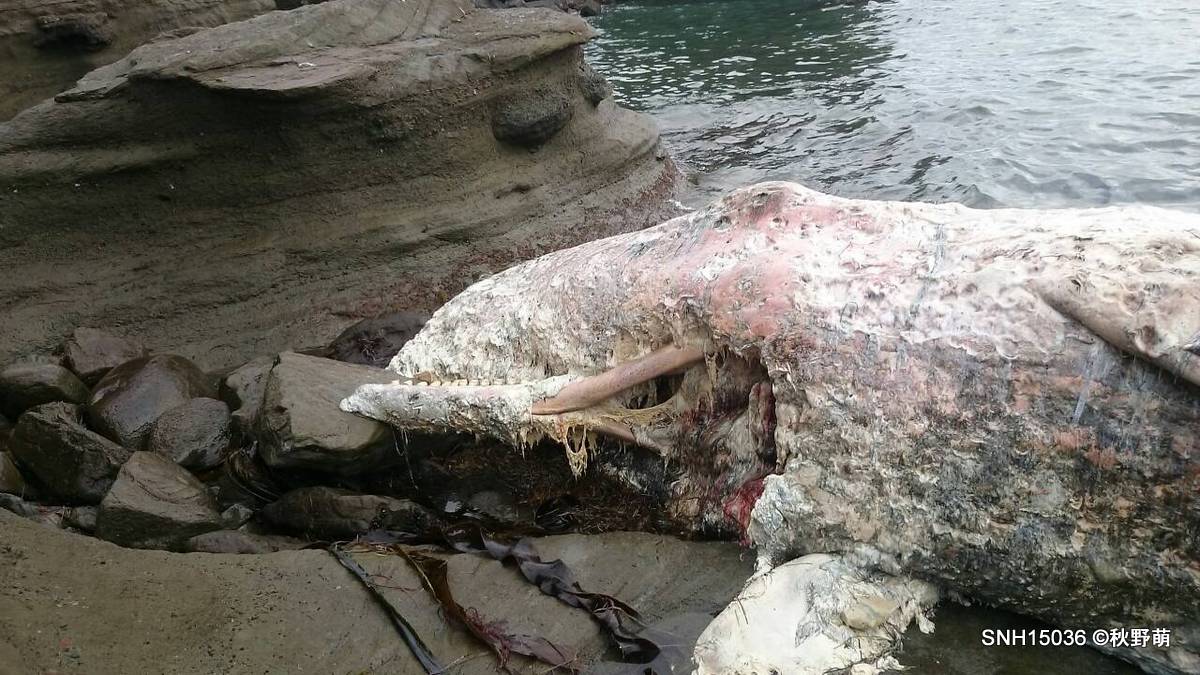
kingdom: Animalia
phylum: Chordata
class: Mammalia
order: Cetacea
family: Physeteridae
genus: Physeter
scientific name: Physeter macrocephalus
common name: Sperm whale
